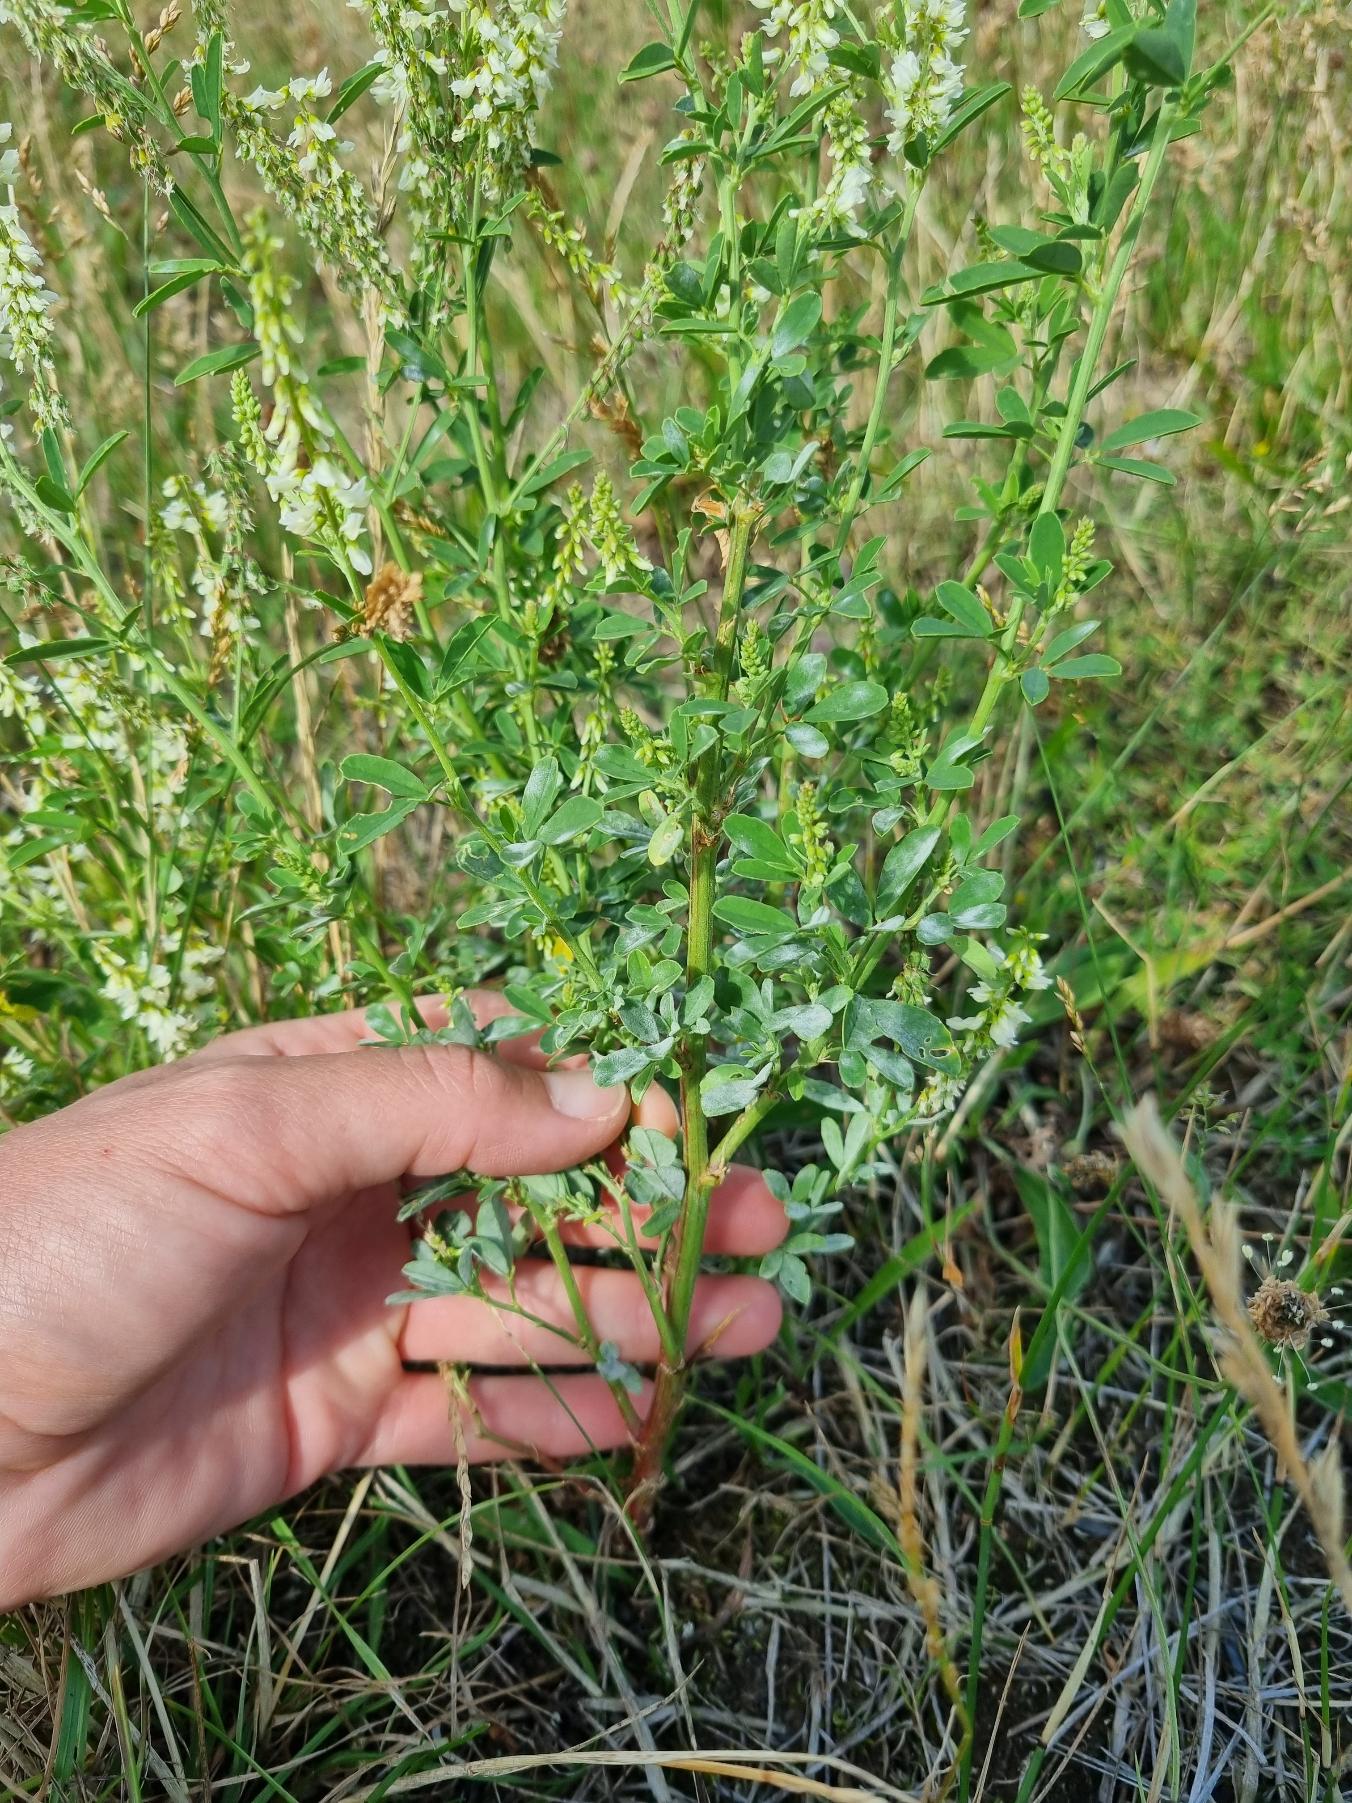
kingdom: Plantae
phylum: Tracheophyta
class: Magnoliopsida
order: Fabales
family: Fabaceae
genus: Melilotus
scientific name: Melilotus albus
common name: Hvid stenkløver
